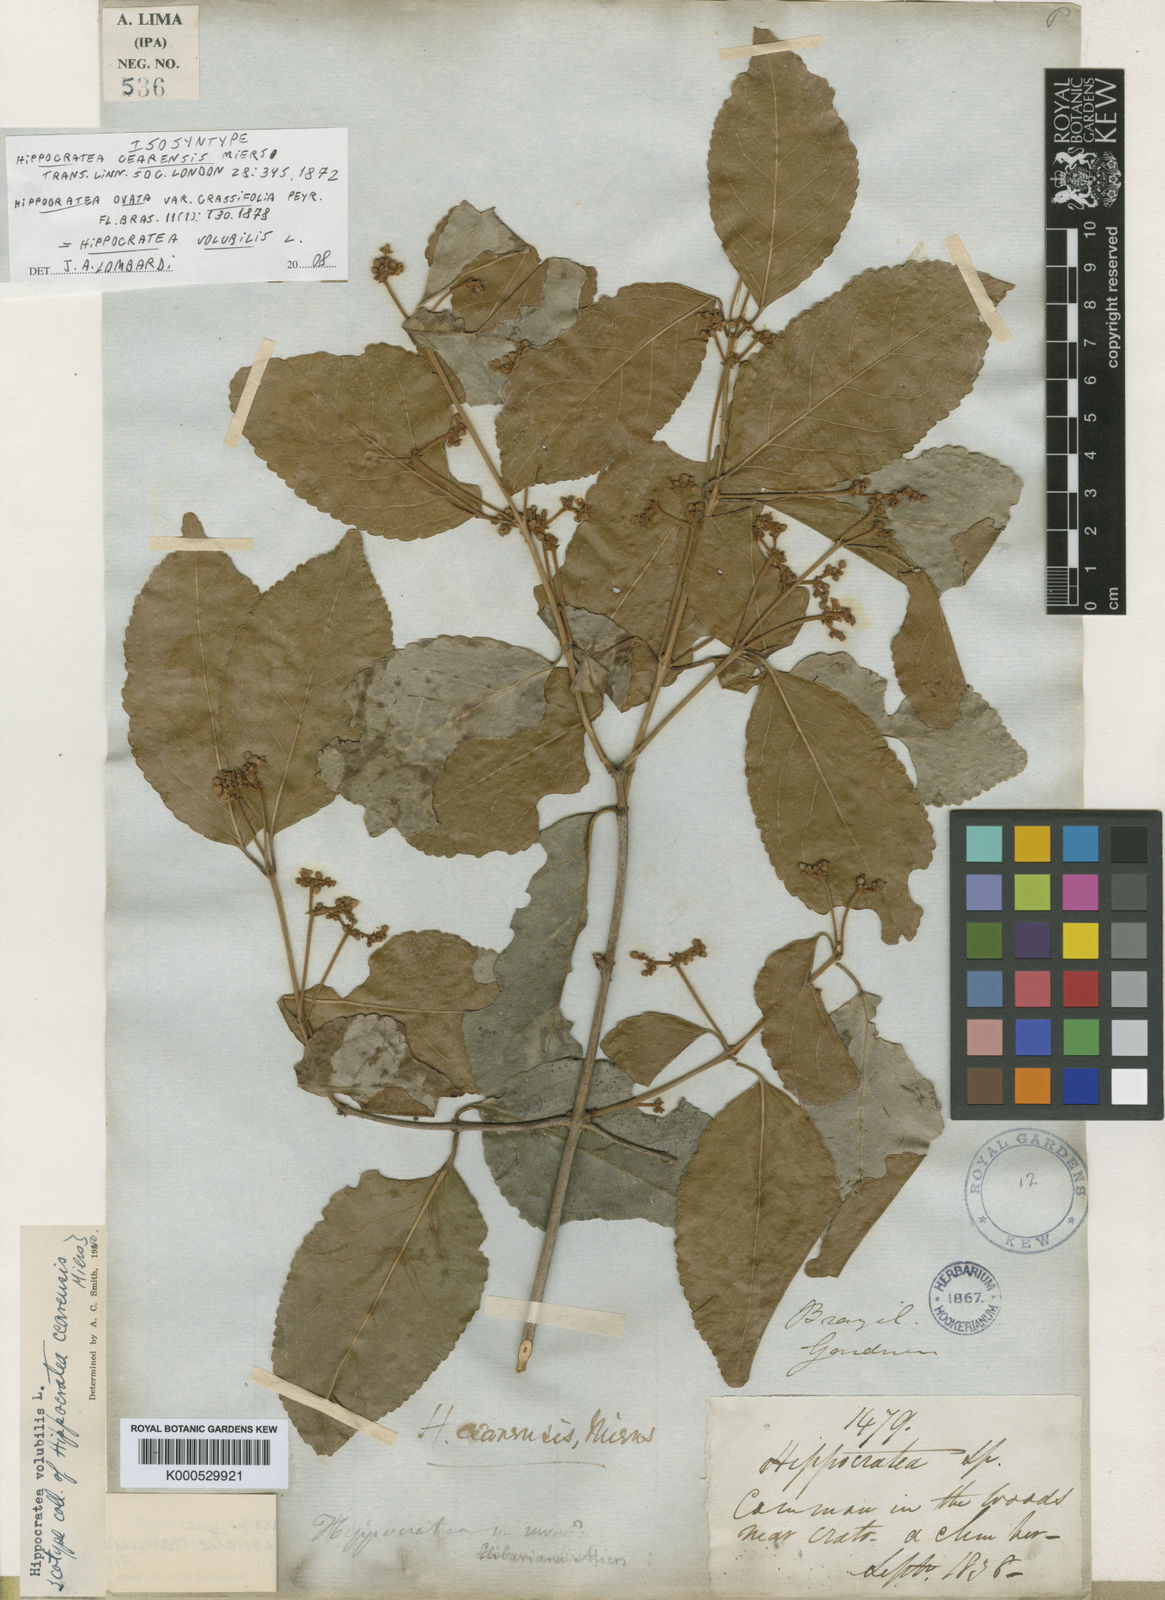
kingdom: Plantae
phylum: Tracheophyta
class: Magnoliopsida
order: Celastrales
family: Celastraceae
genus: Hippocratea
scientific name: Hippocratea volubilis
